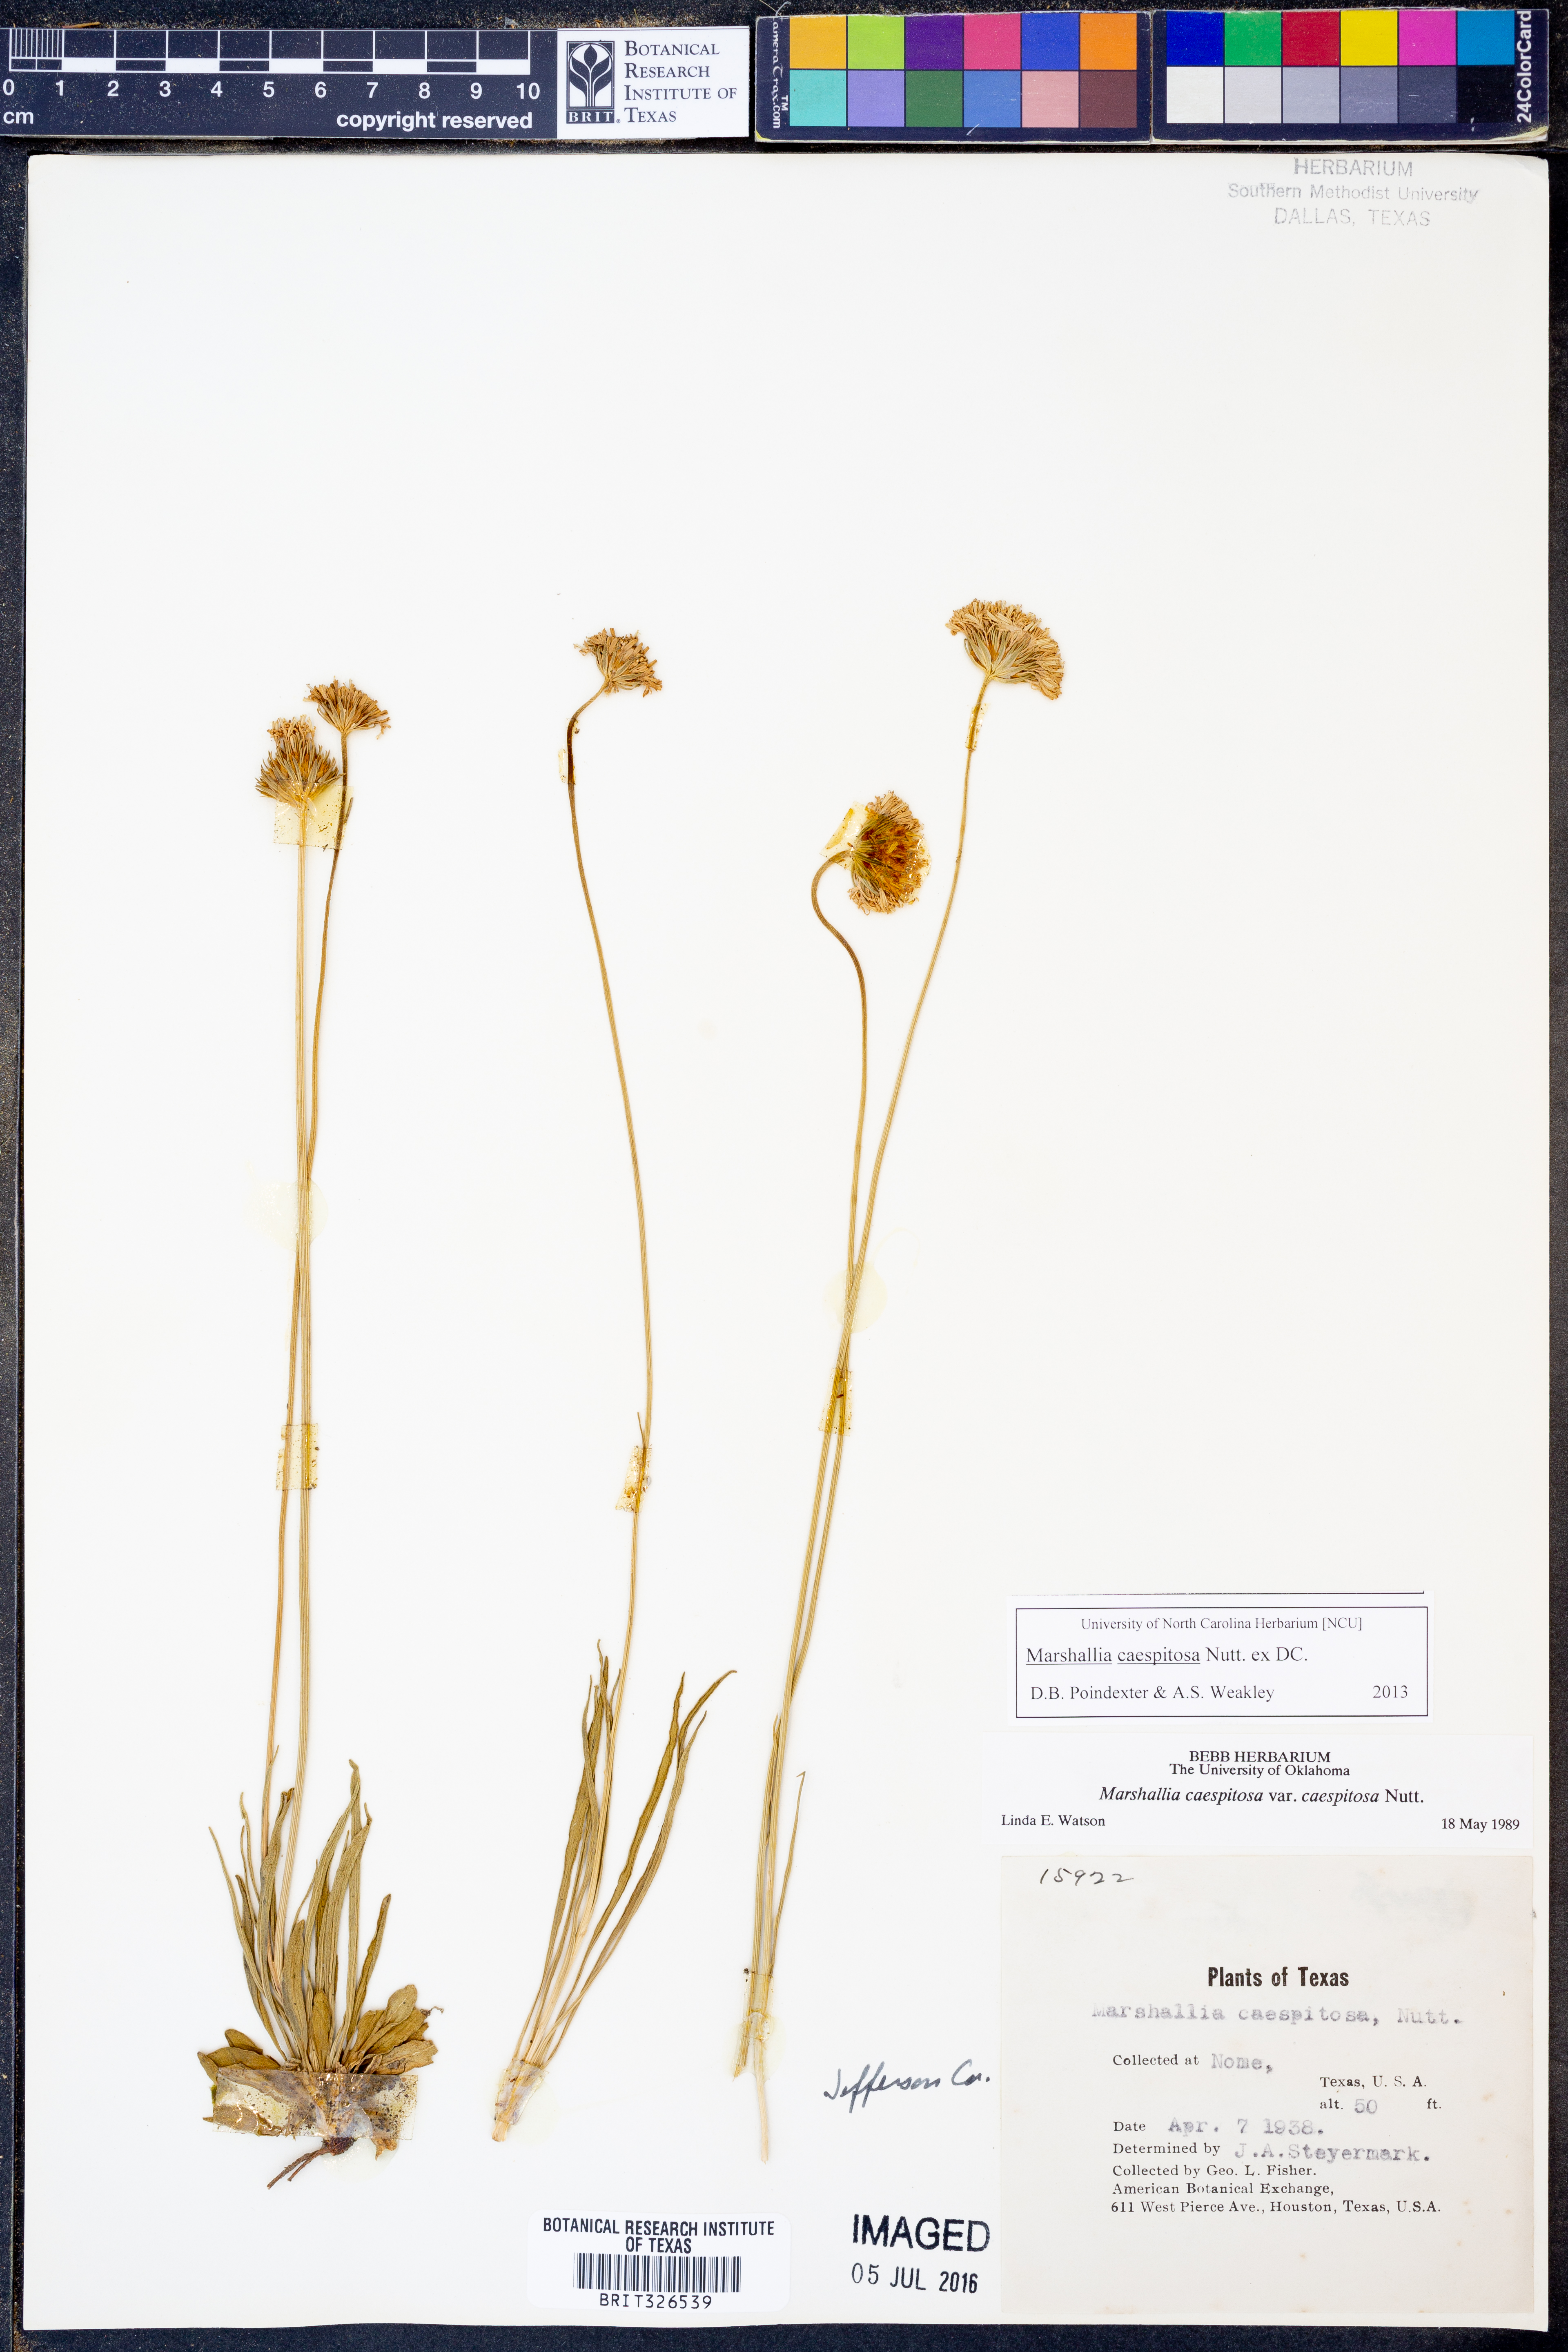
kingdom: Plantae
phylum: Tracheophyta
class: Magnoliopsida
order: Asterales
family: Asteraceae
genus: Marshallia
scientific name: Marshallia caespitosa
